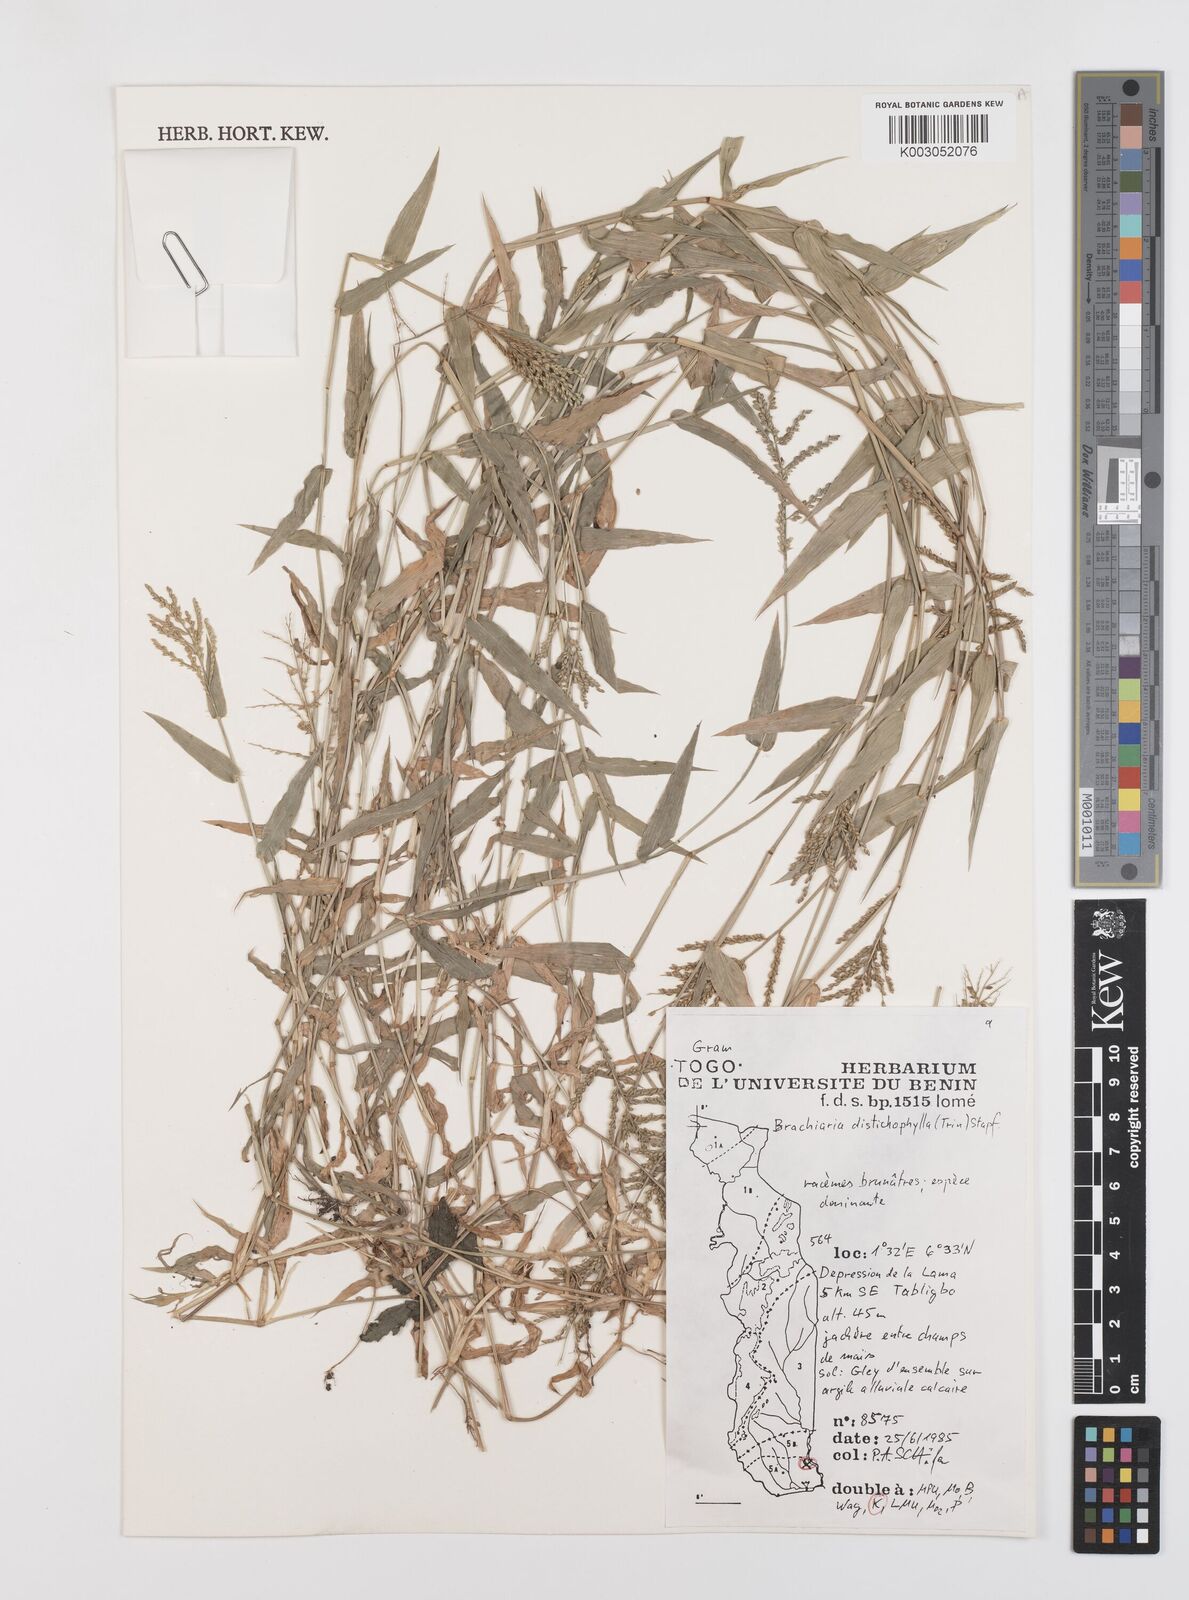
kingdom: Plantae
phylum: Tracheophyta
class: Liliopsida
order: Poales
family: Poaceae
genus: Urochloa
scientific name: Urochloa villosa
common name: Hairy signalgrass
